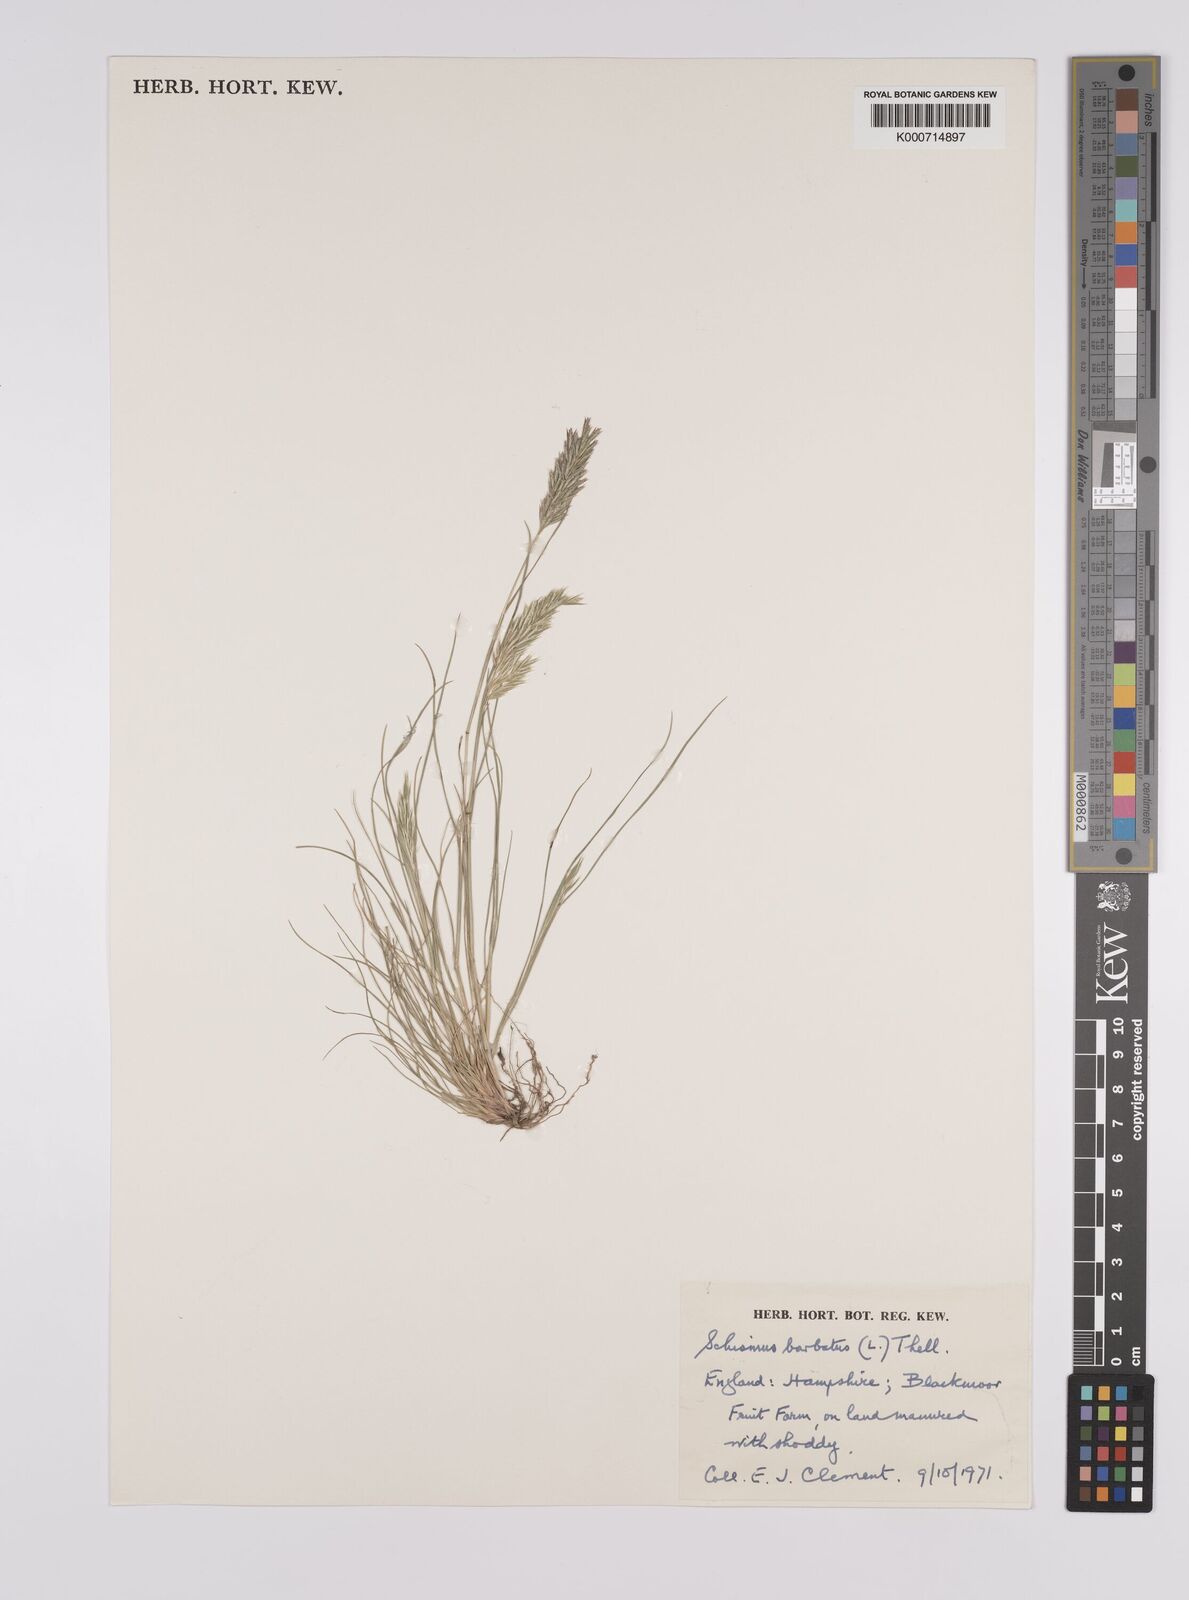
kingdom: Plantae
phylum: Tracheophyta
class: Liliopsida
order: Poales
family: Poaceae
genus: Schismus
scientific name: Schismus barbatus
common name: Kelch-grass
